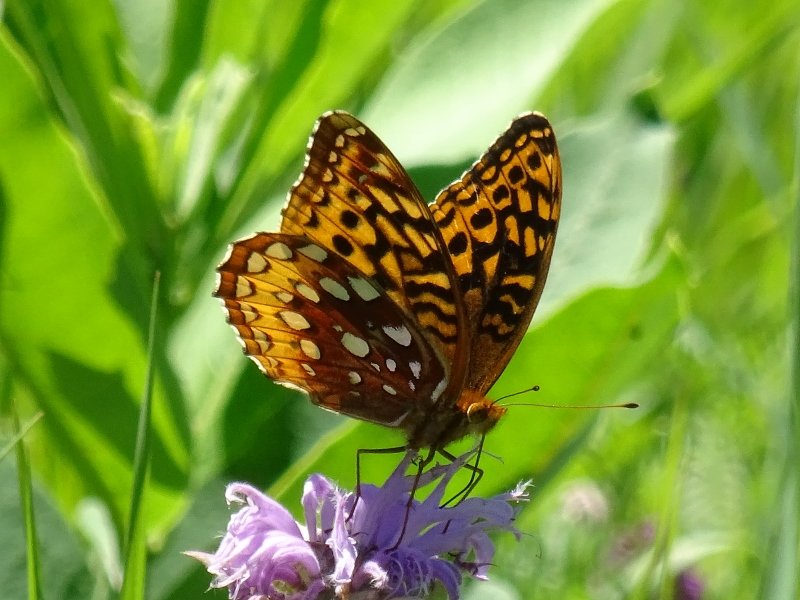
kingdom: Animalia
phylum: Arthropoda
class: Insecta
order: Lepidoptera
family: Nymphalidae
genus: Speyeria
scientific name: Speyeria cybele
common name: Great Spangled Fritillary
